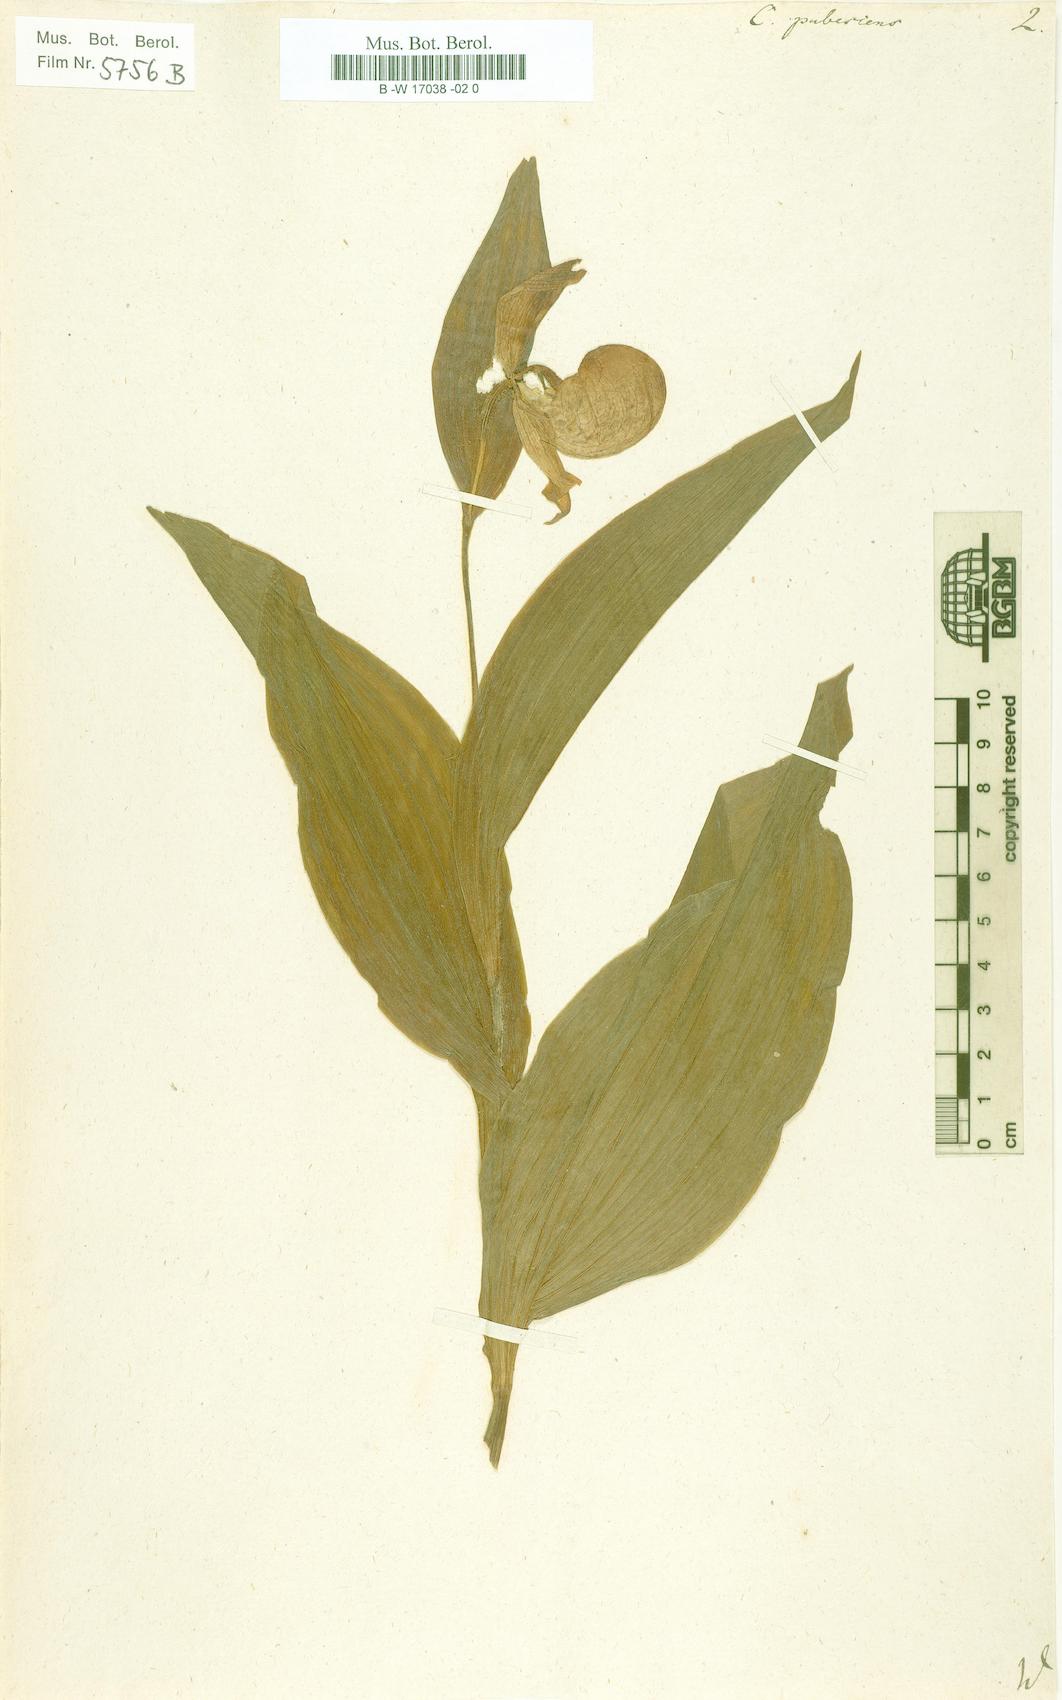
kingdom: Plantae
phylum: Tracheophyta
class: Liliopsida
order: Asparagales
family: Orchidaceae
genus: Cypripedium
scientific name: Cypripedium parviflorum
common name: American yellow lady's-slipper
